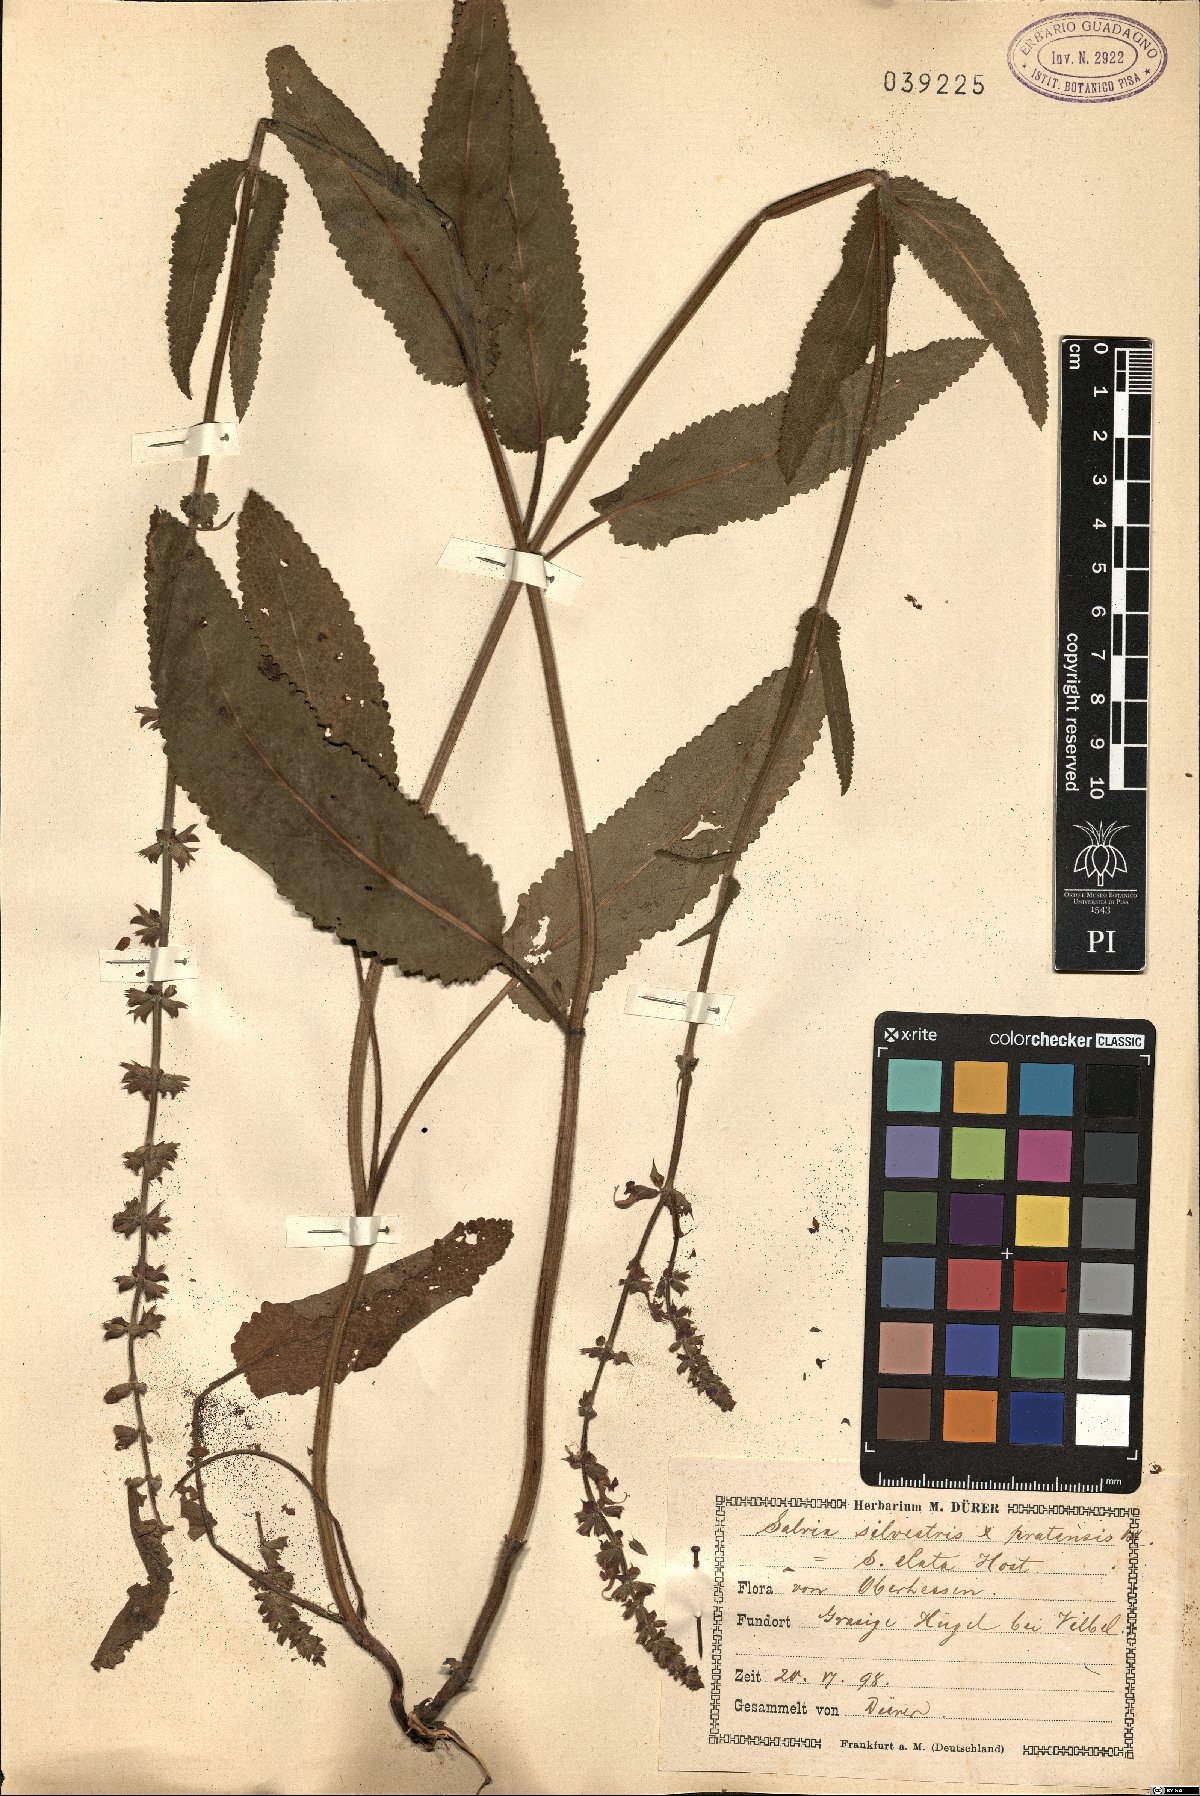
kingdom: Plantae
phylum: Tracheophyta
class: Magnoliopsida
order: Lamiales
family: Lamiaceae
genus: Salvia
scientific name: Salvia sylvestris
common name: Woodland sage
